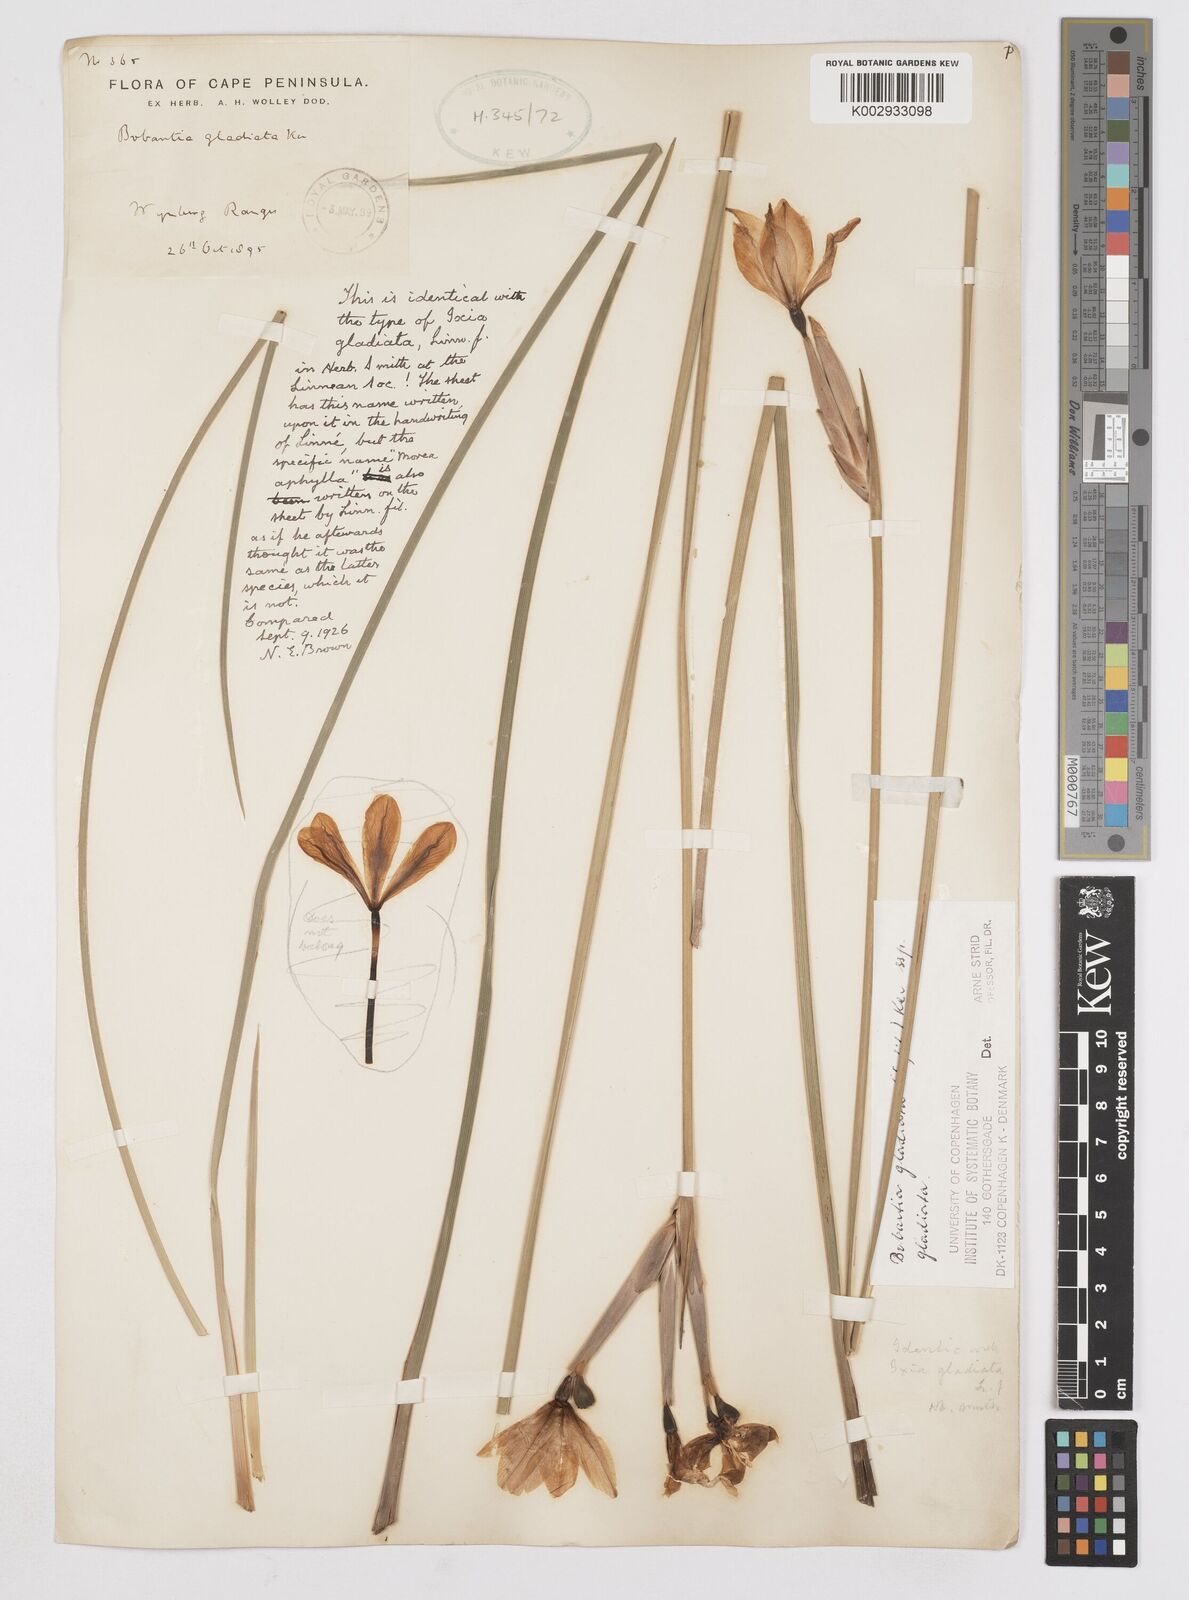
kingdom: Plantae
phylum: Tracheophyta
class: Liliopsida
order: Asparagales
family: Iridaceae
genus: Bobartia
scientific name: Bobartia gladiata
